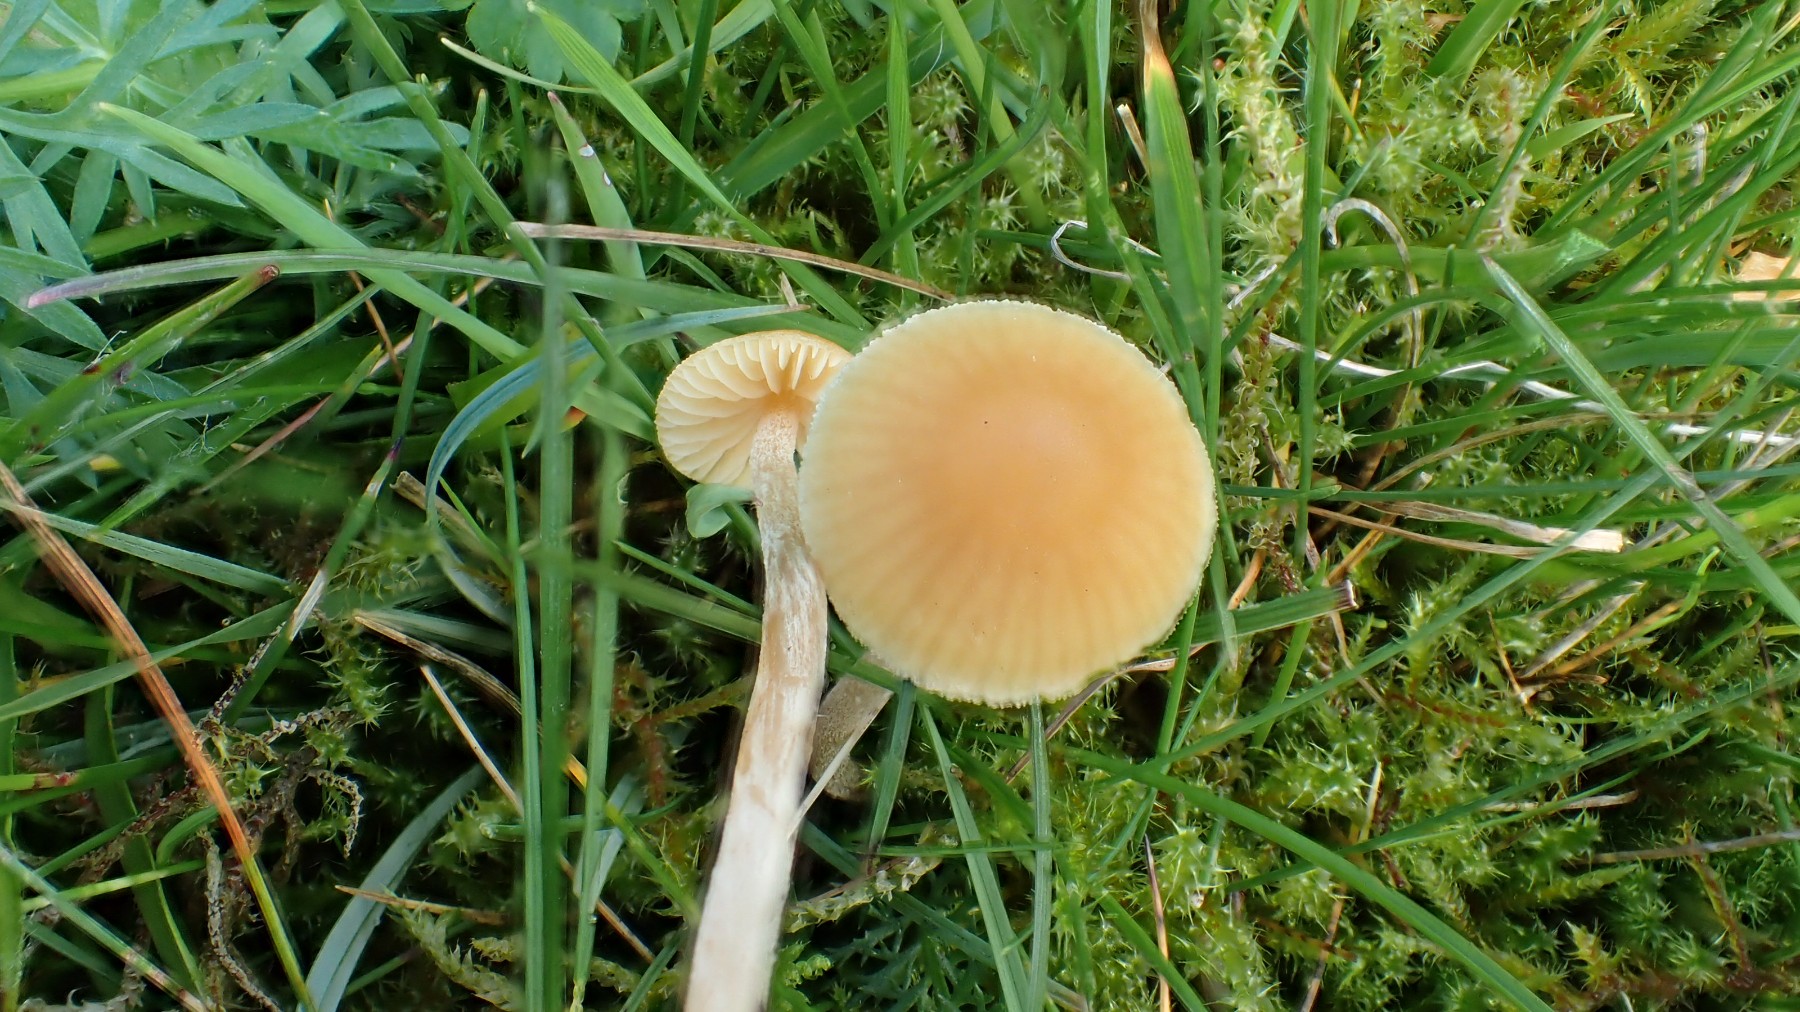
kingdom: Fungi
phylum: Basidiomycota
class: Agaricomycetes
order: Agaricales
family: Hymenogastraceae
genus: Galerina
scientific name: Galerina
